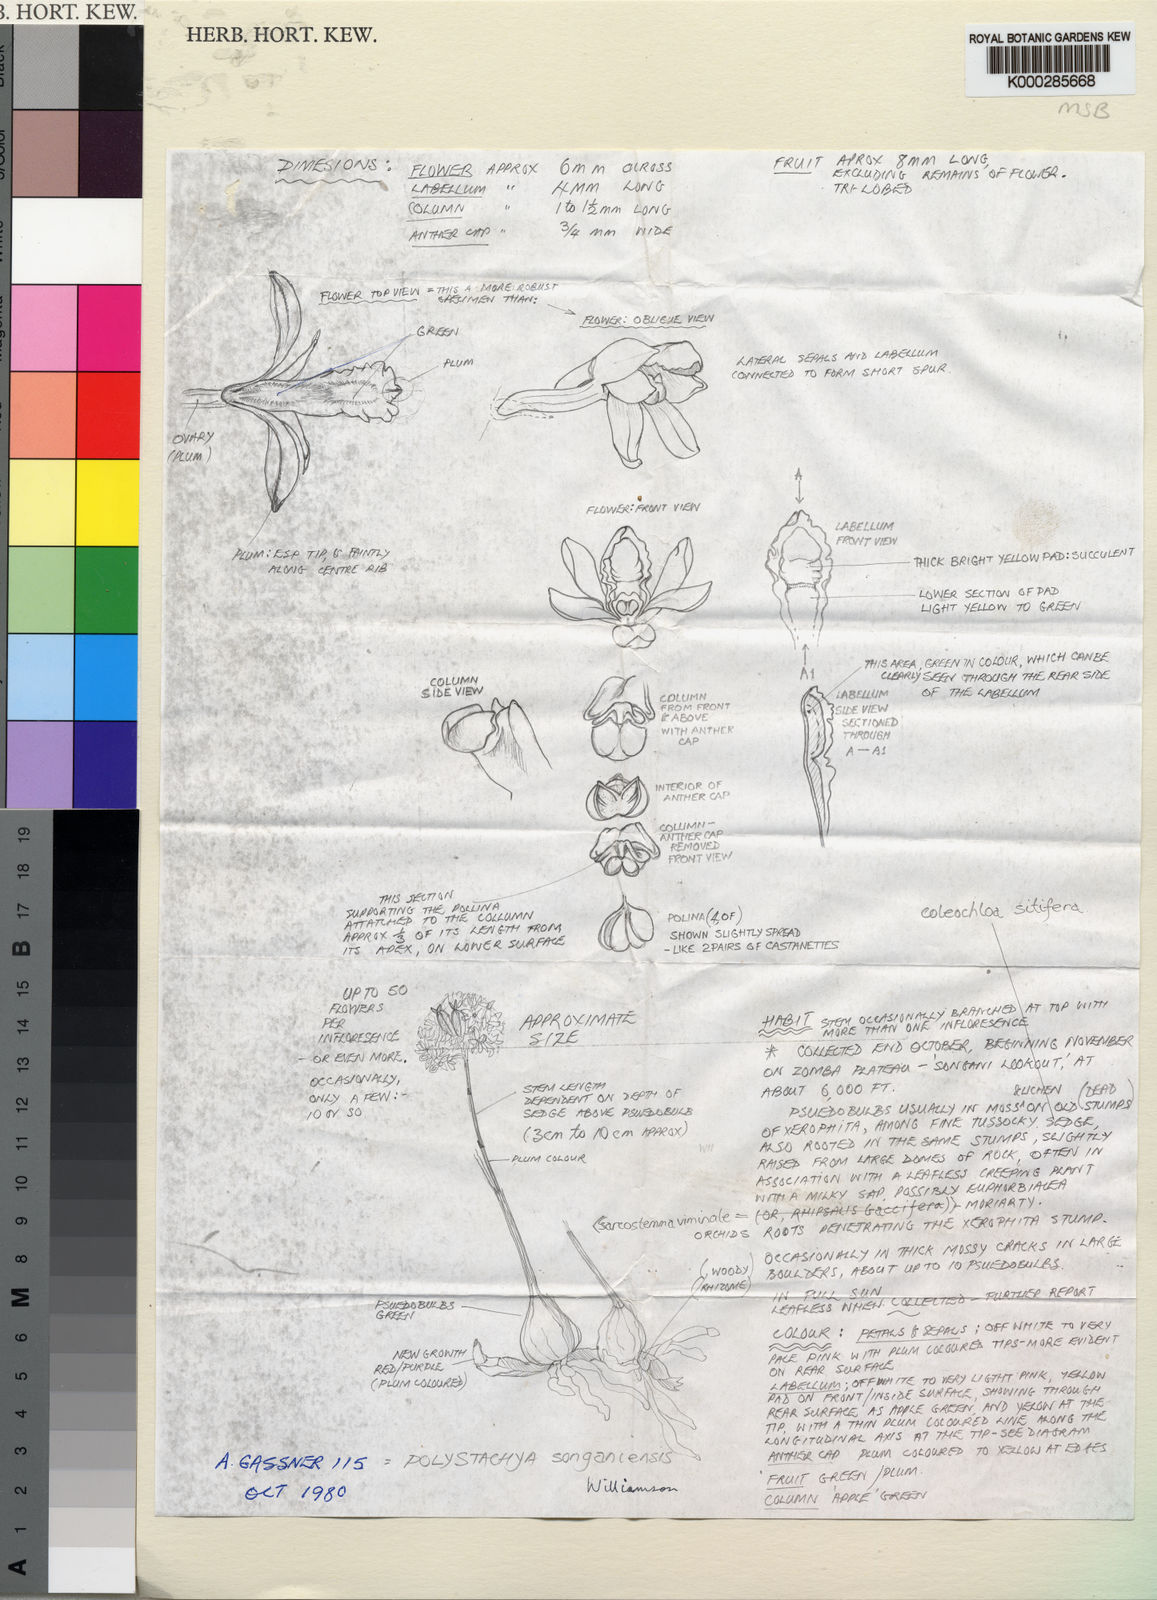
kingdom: Plantae
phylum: Tracheophyta
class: Liliopsida
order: Asparagales
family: Orchidaceae
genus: Polystachya
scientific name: Polystachya songaniensis
